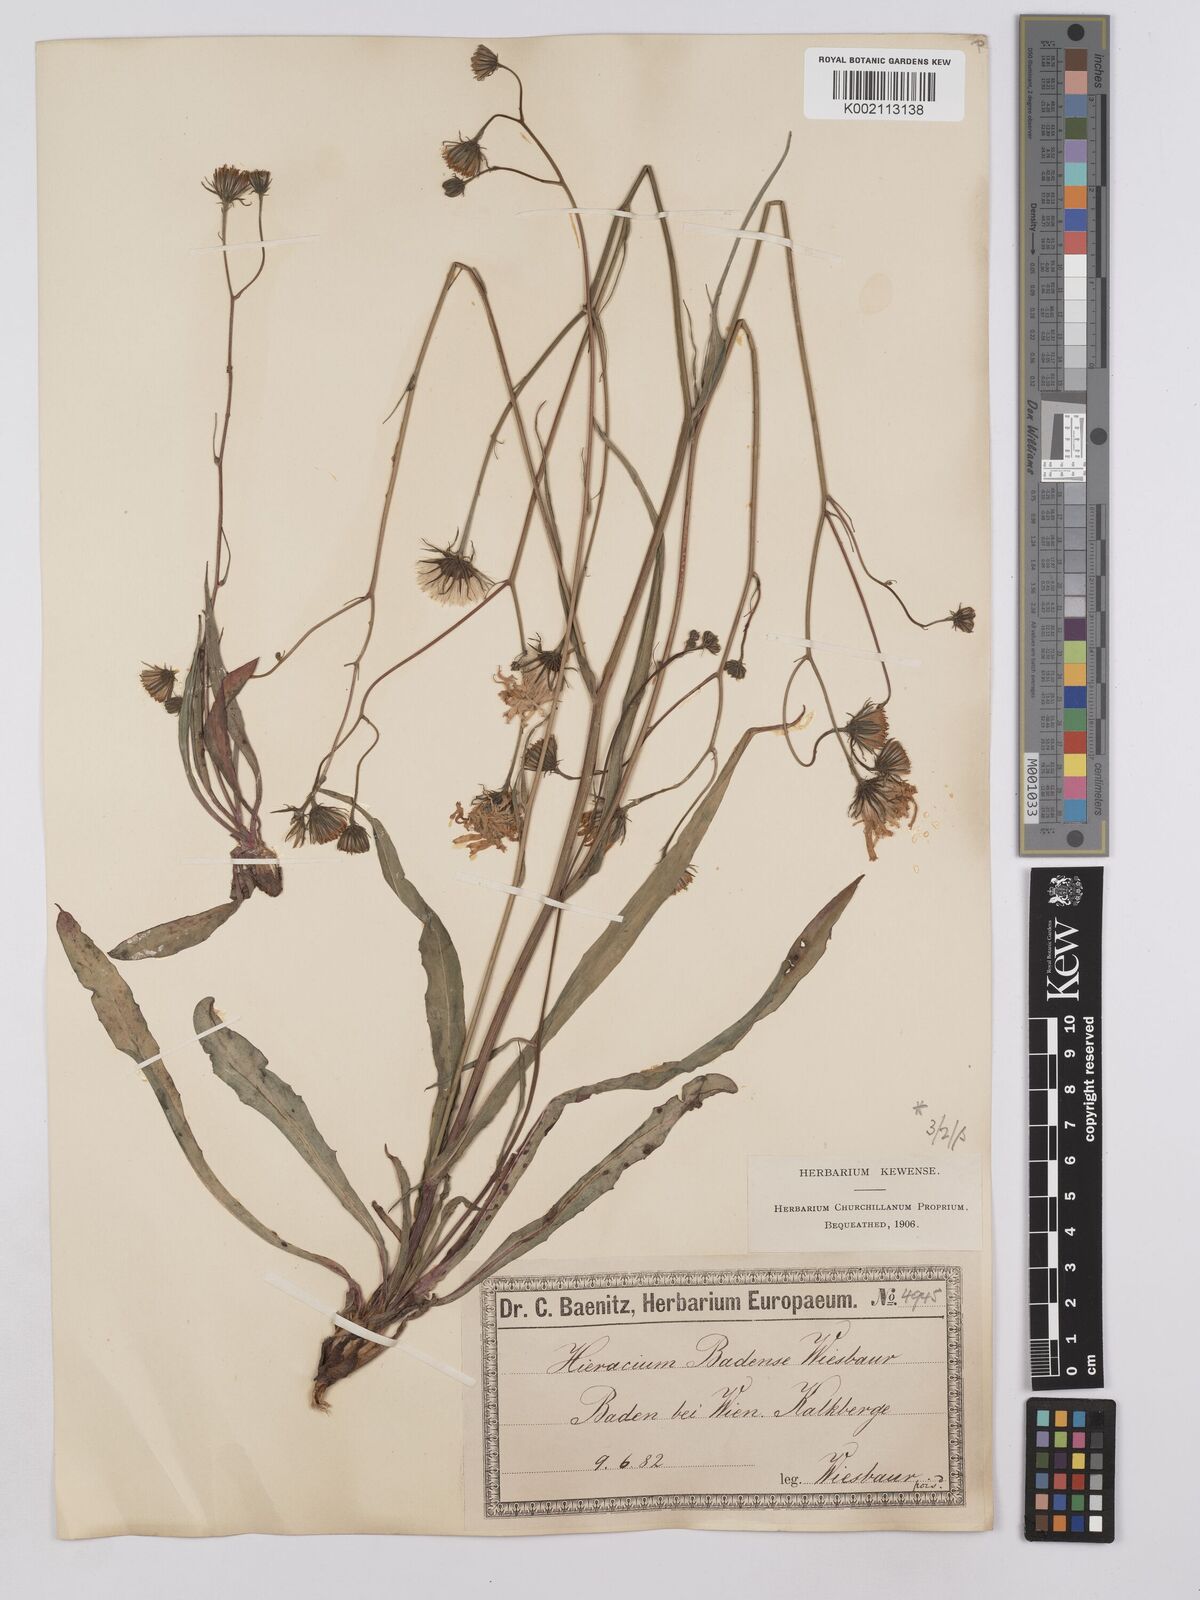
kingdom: Plantae
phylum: Tracheophyta
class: Magnoliopsida
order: Asterales
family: Asteraceae
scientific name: Asteraceae
